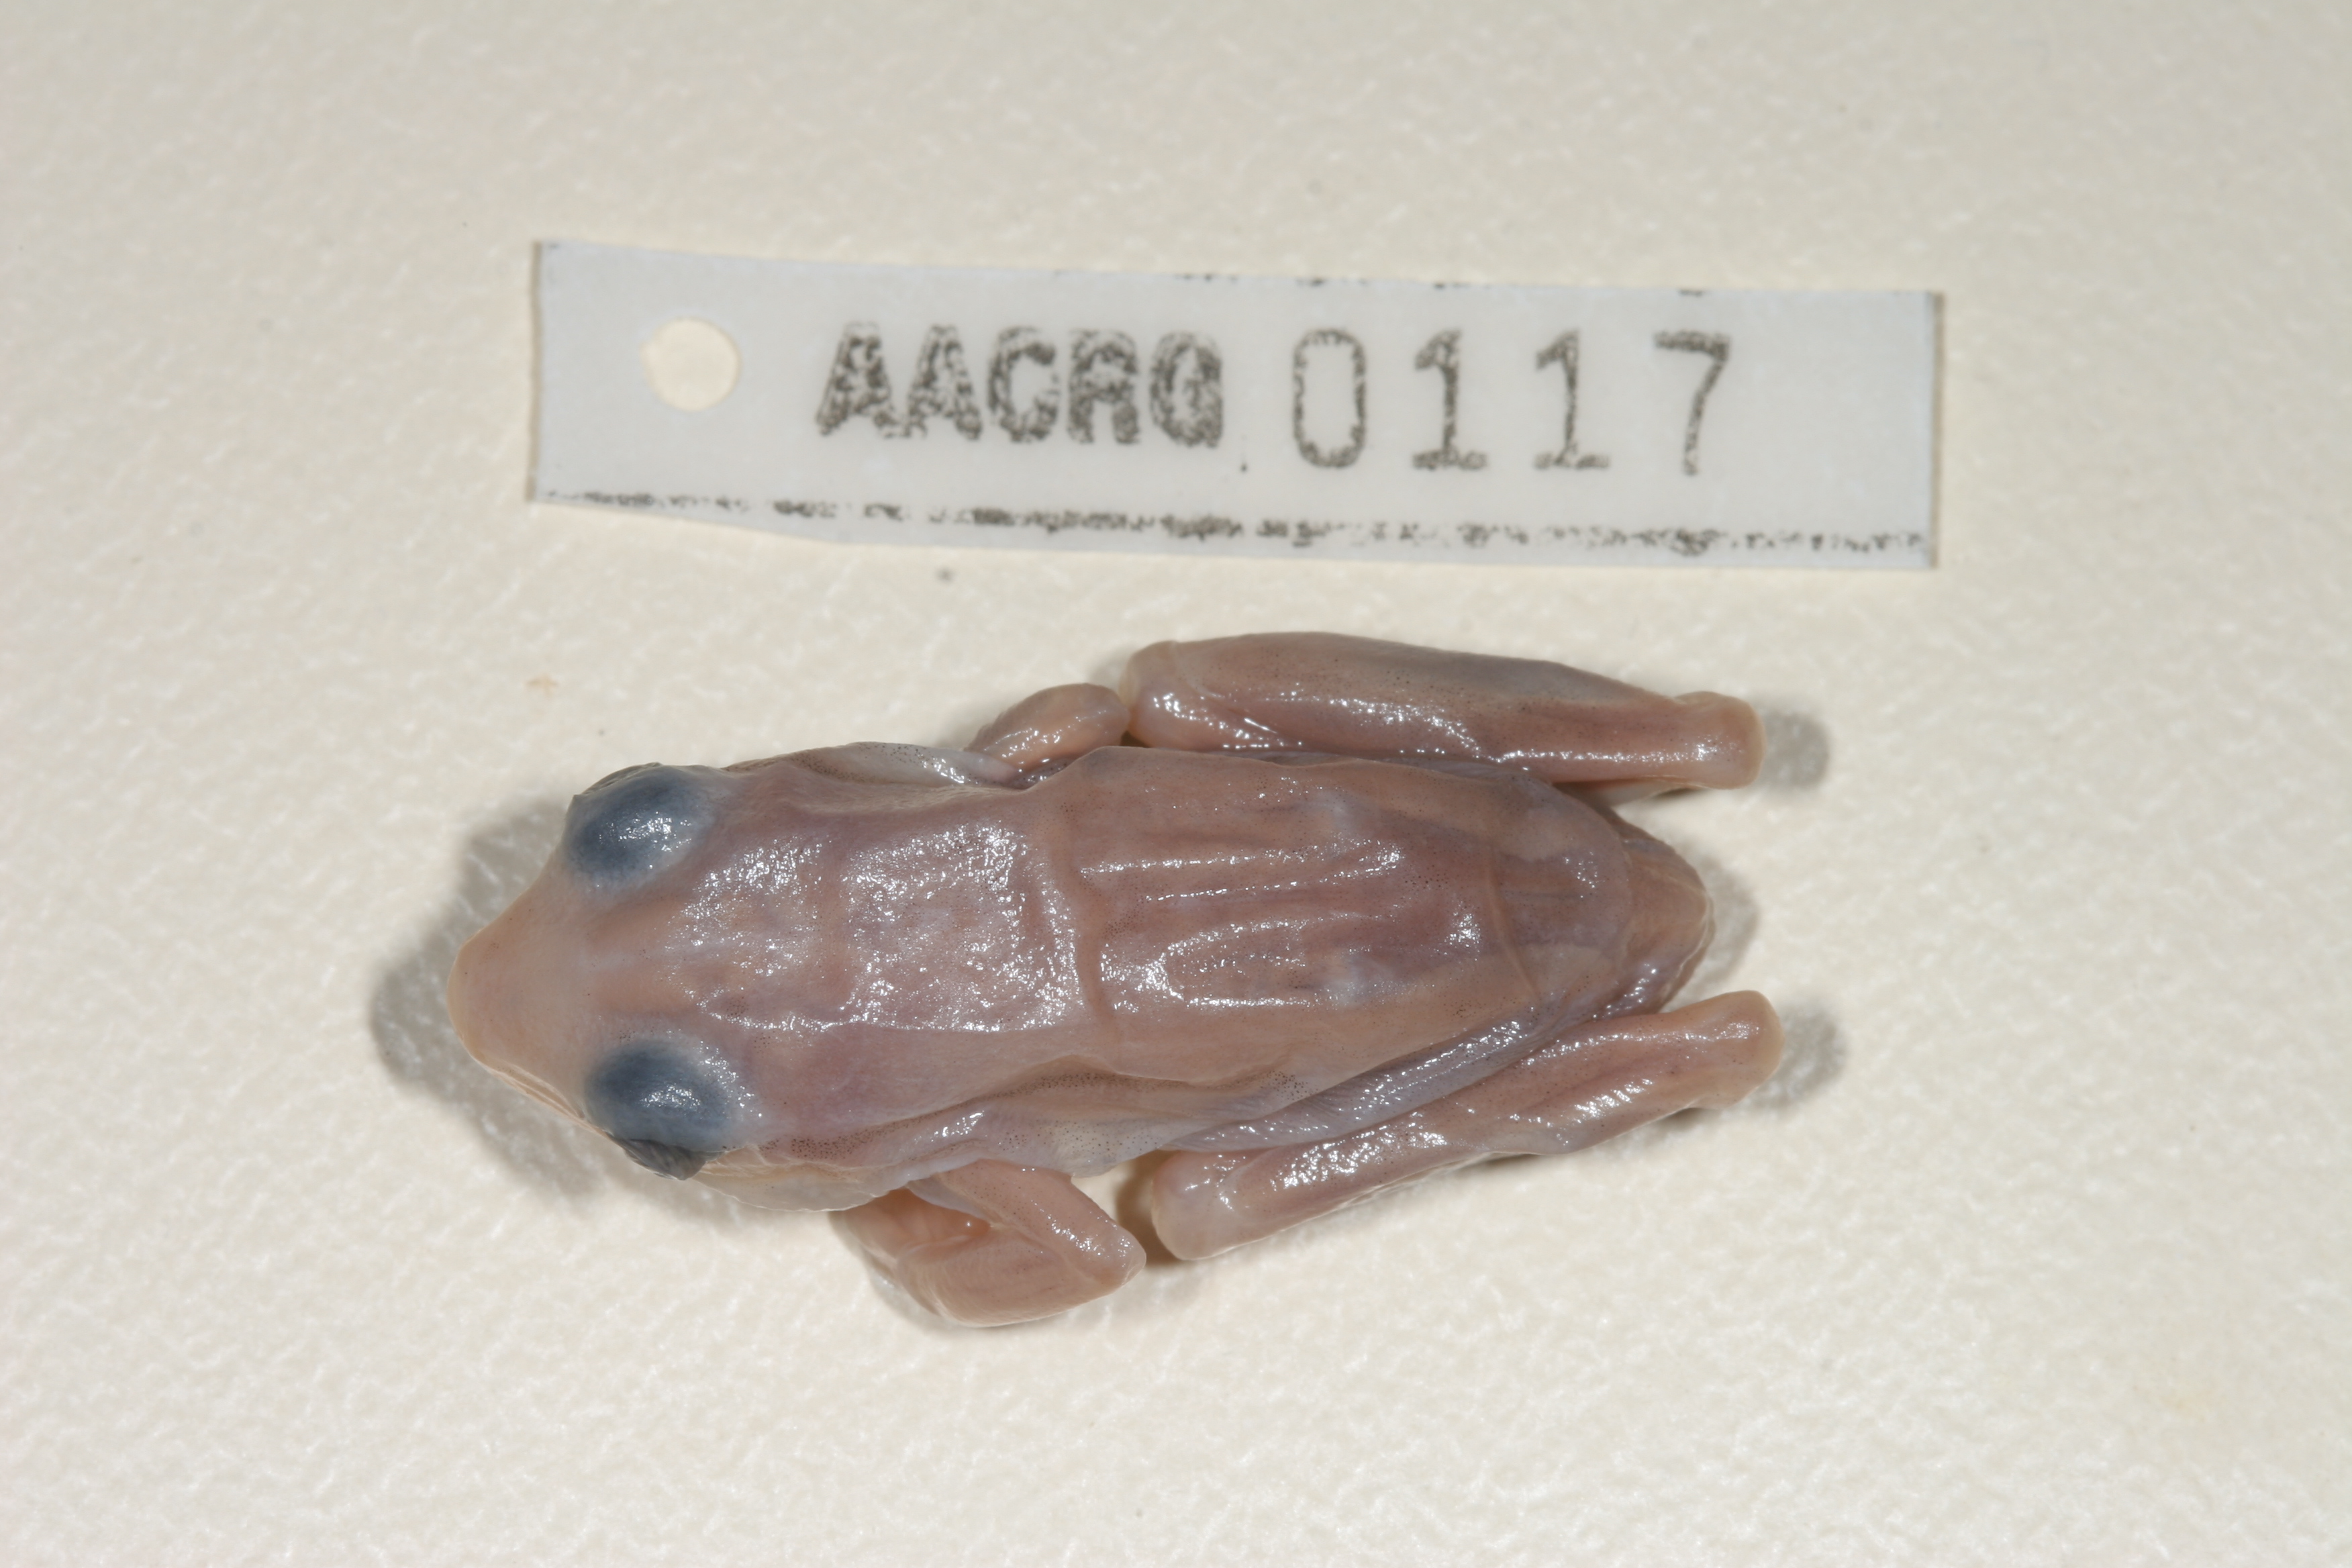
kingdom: Animalia
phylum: Chordata
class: Amphibia
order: Anura
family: Hyperoliidae
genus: Hyperolius
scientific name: Hyperolius horstockii
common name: Arum lily frog
